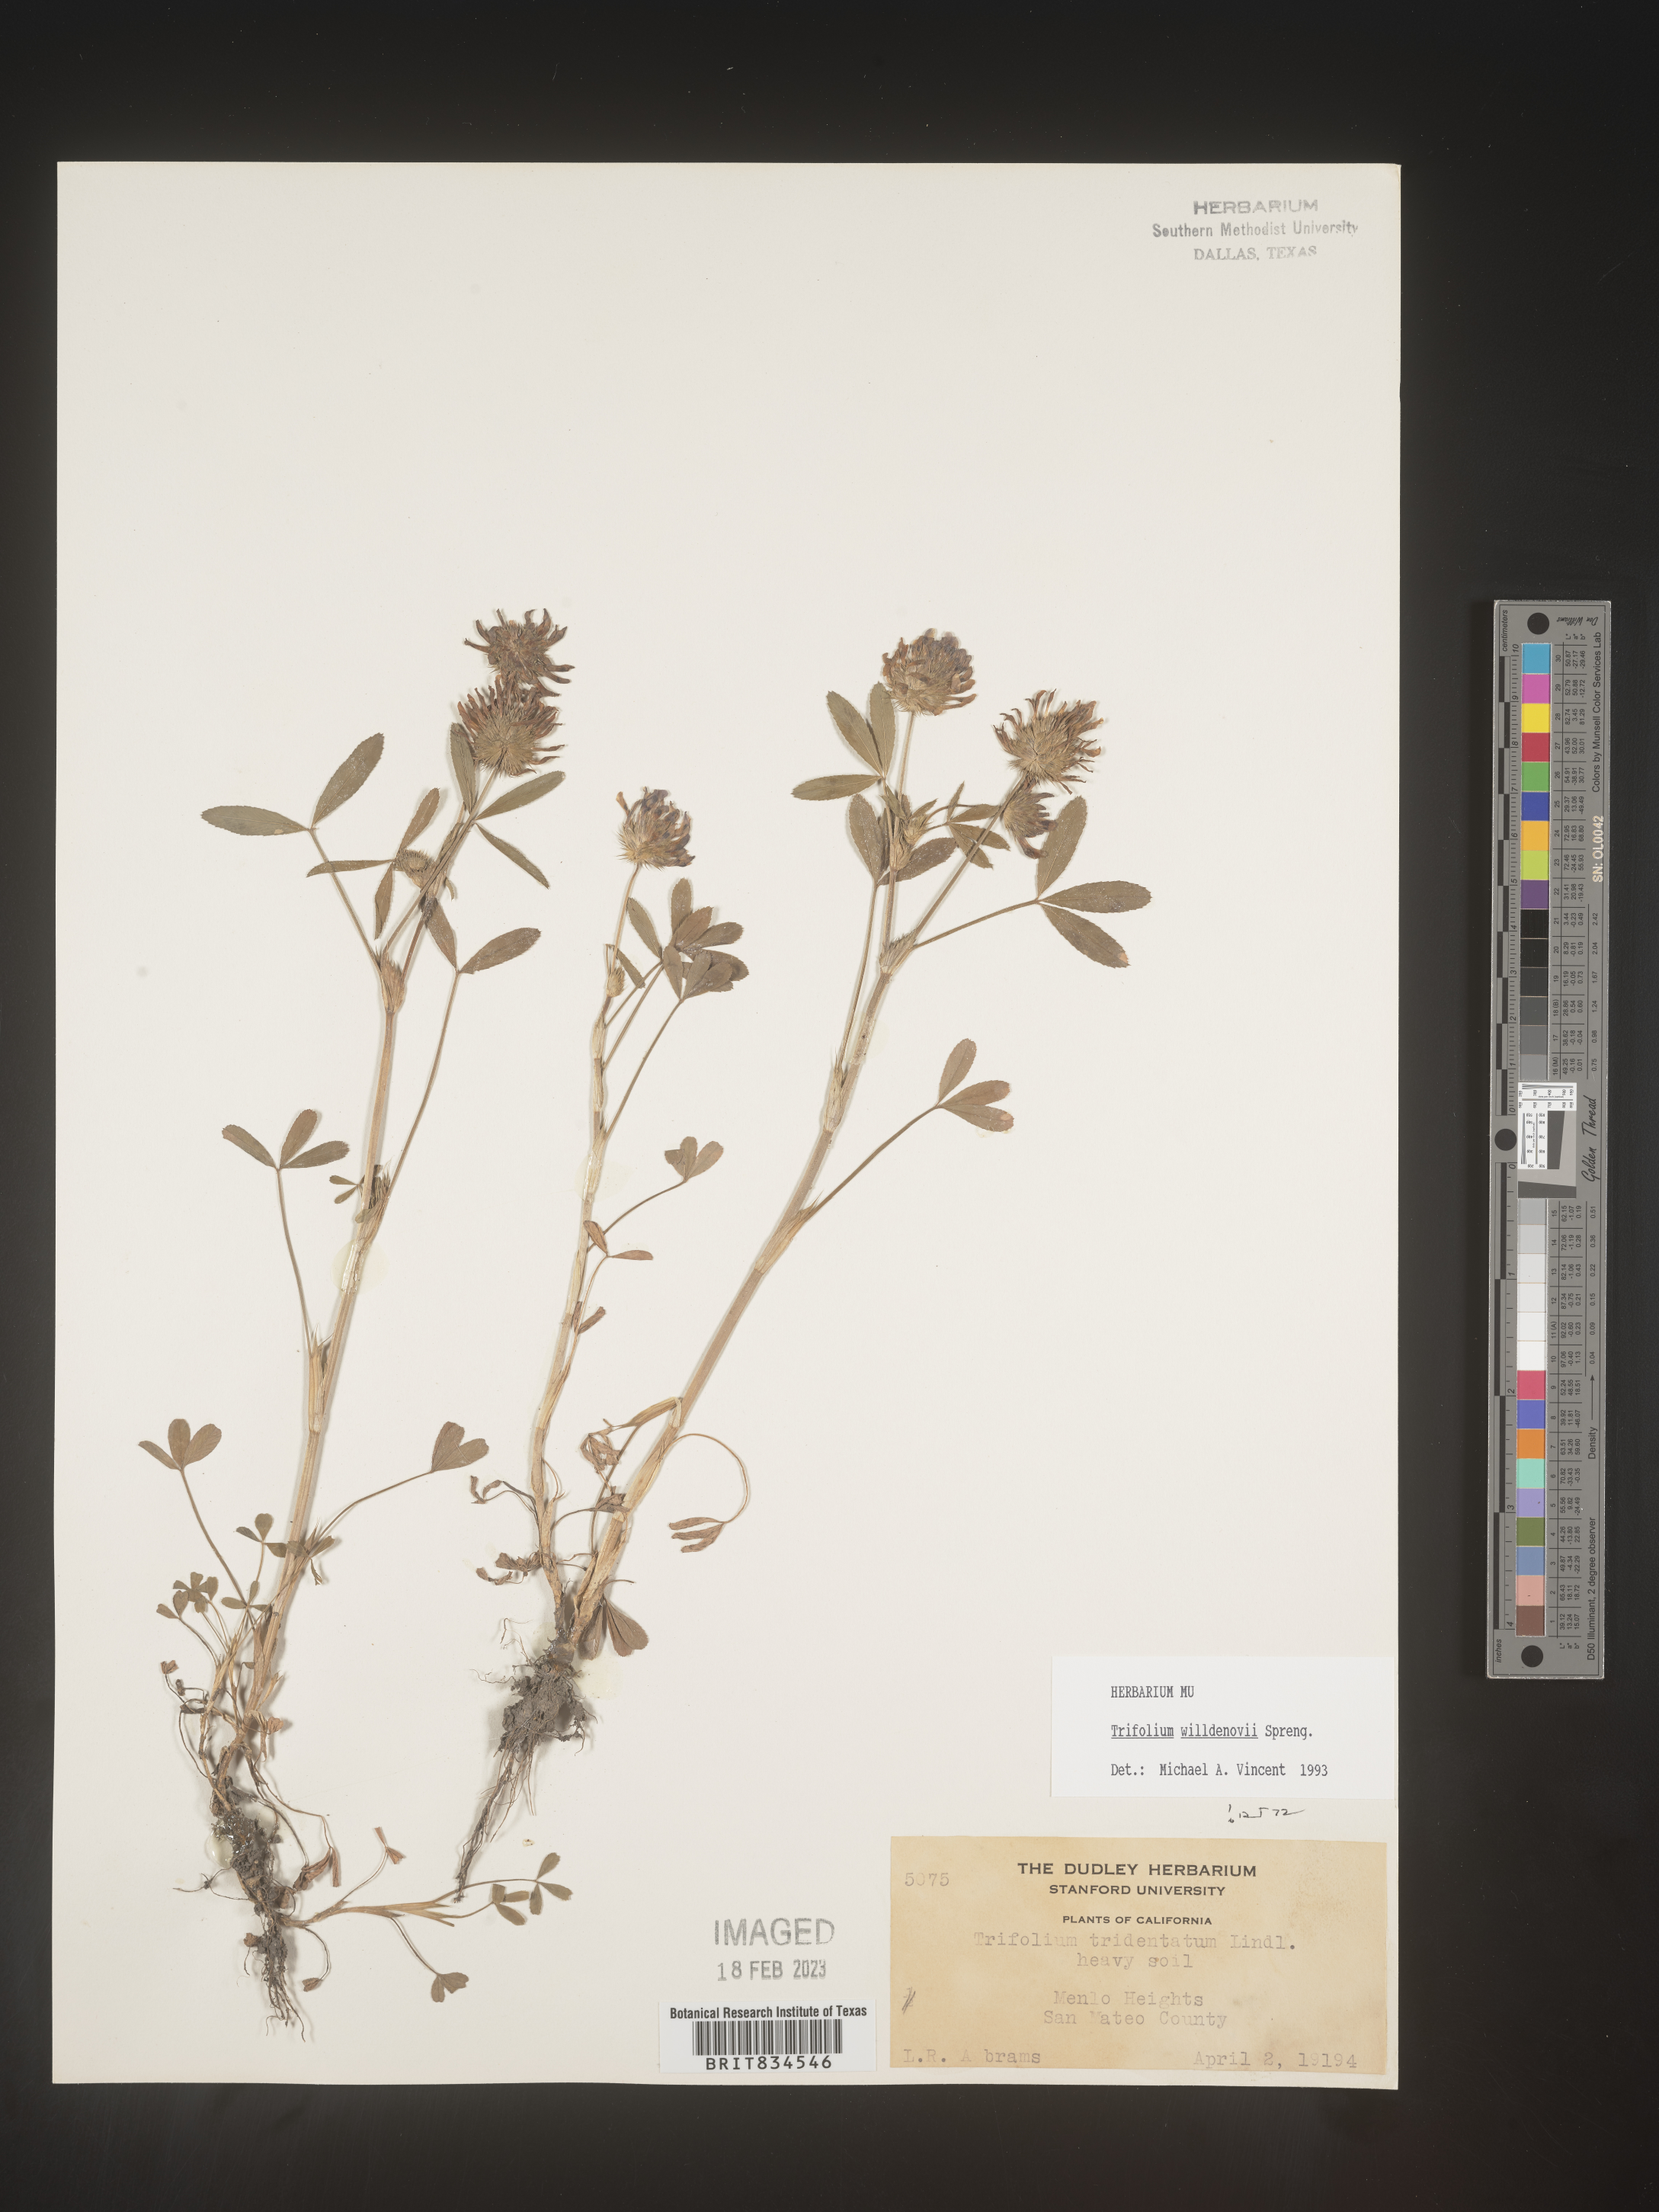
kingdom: Plantae
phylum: Tracheophyta
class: Magnoliopsida
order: Fabales
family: Fabaceae
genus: Trifolium
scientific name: Trifolium
